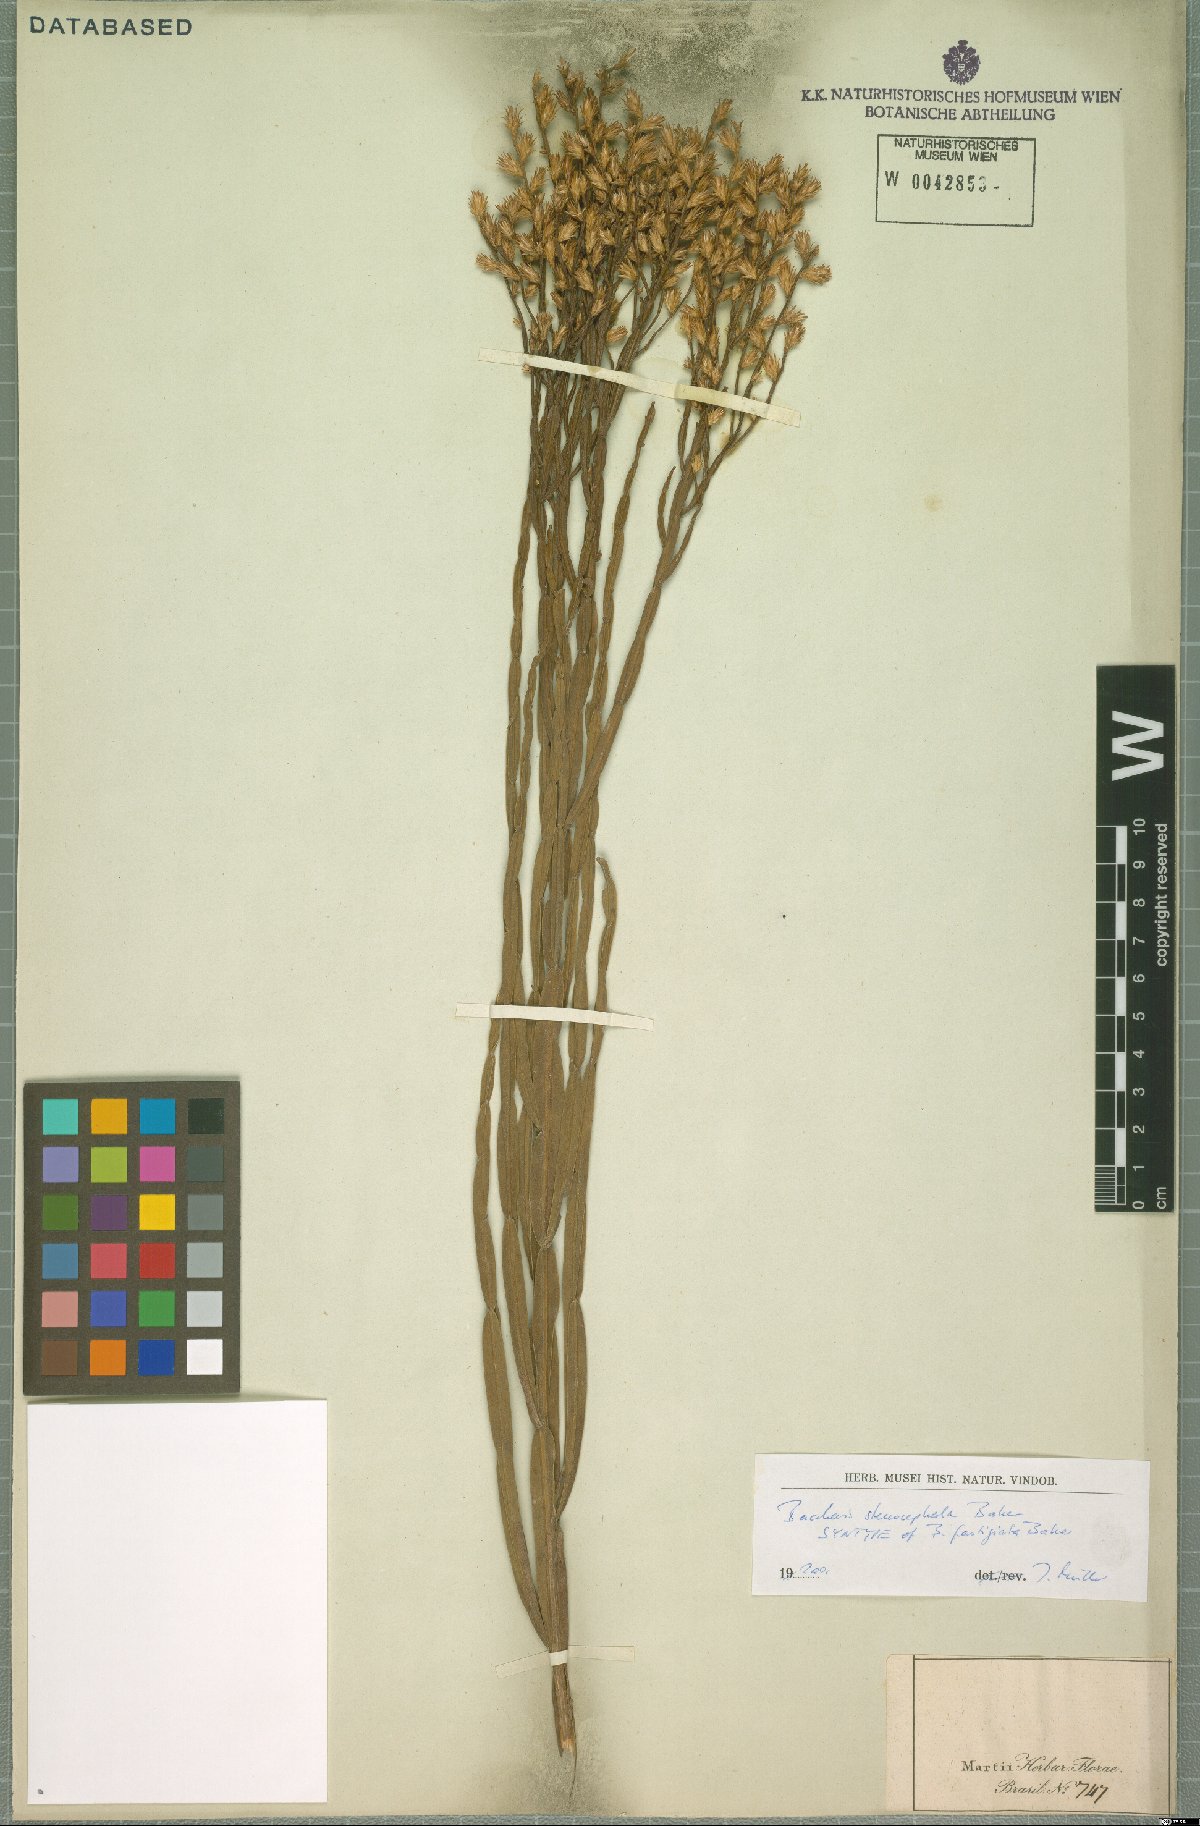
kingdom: Plantae
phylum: Tracheophyta
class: Magnoliopsida
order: Asterales
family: Asteraceae
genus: Baccharis
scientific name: Baccharis stenocephala
